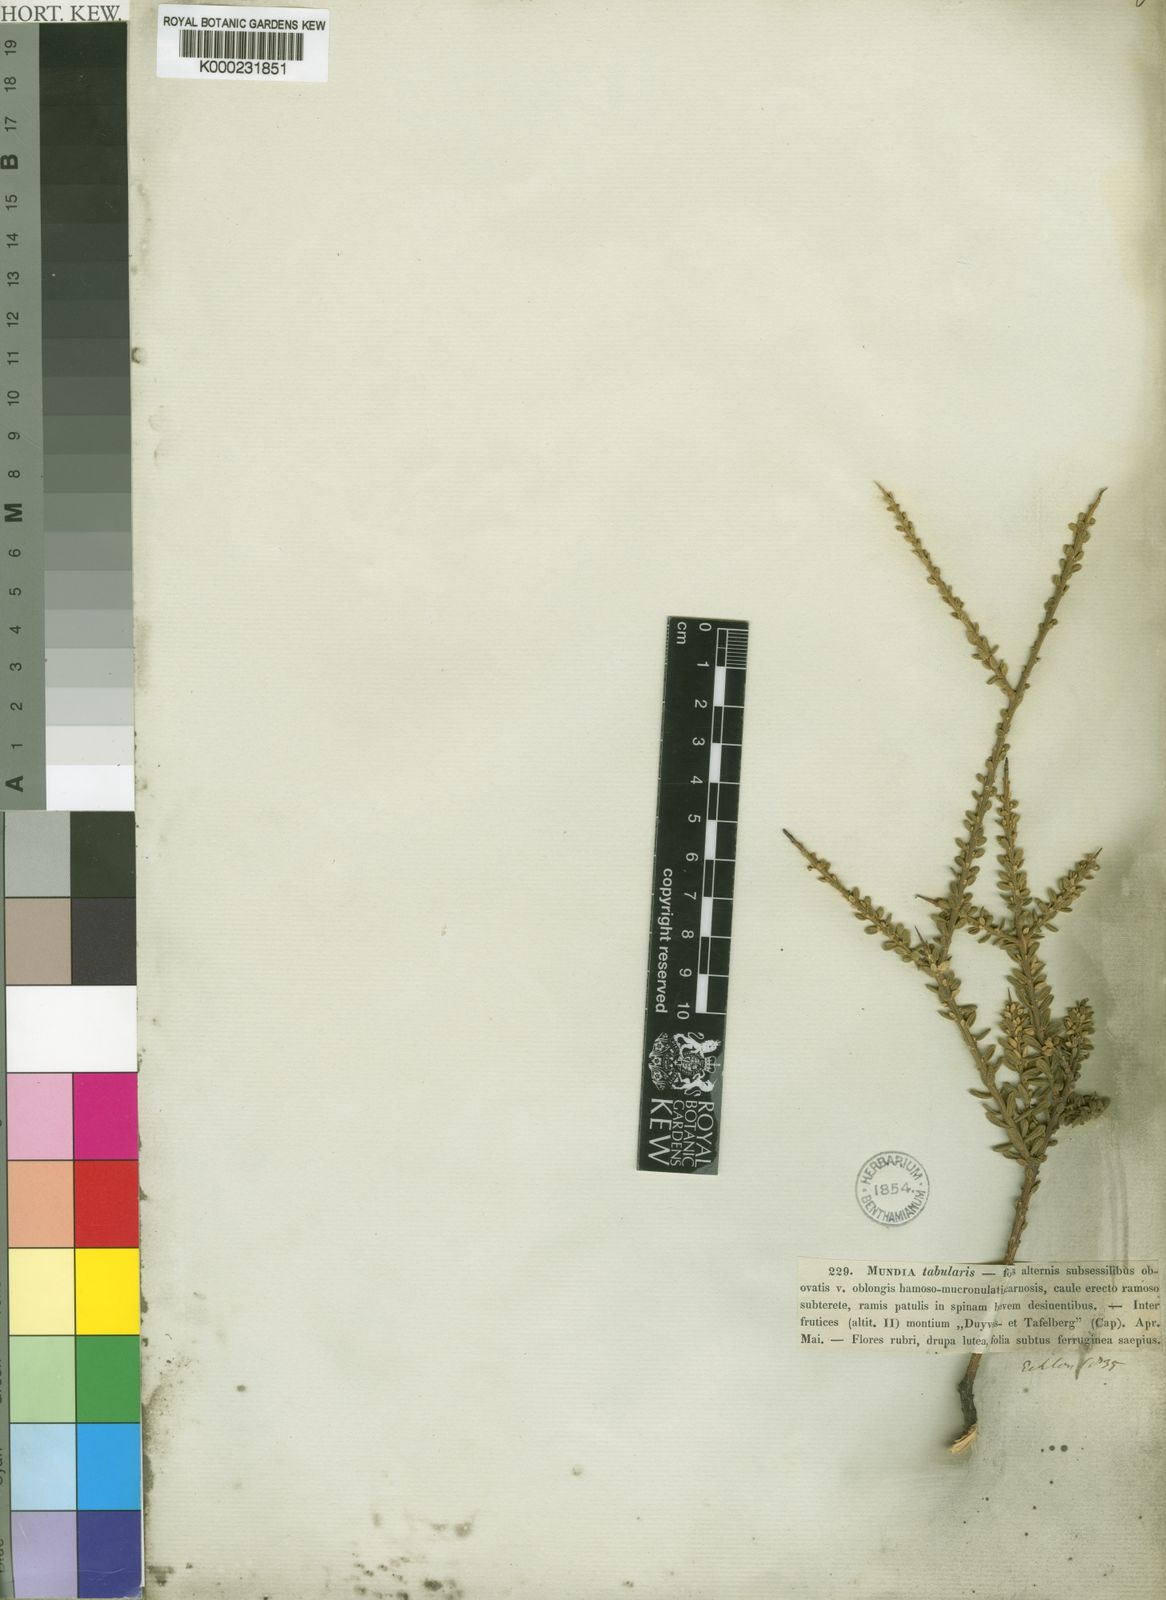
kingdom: Plantae
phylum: Tracheophyta
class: Magnoliopsida
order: Fabales
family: Polygalaceae
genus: Muraltia
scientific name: Muraltia spinosa
